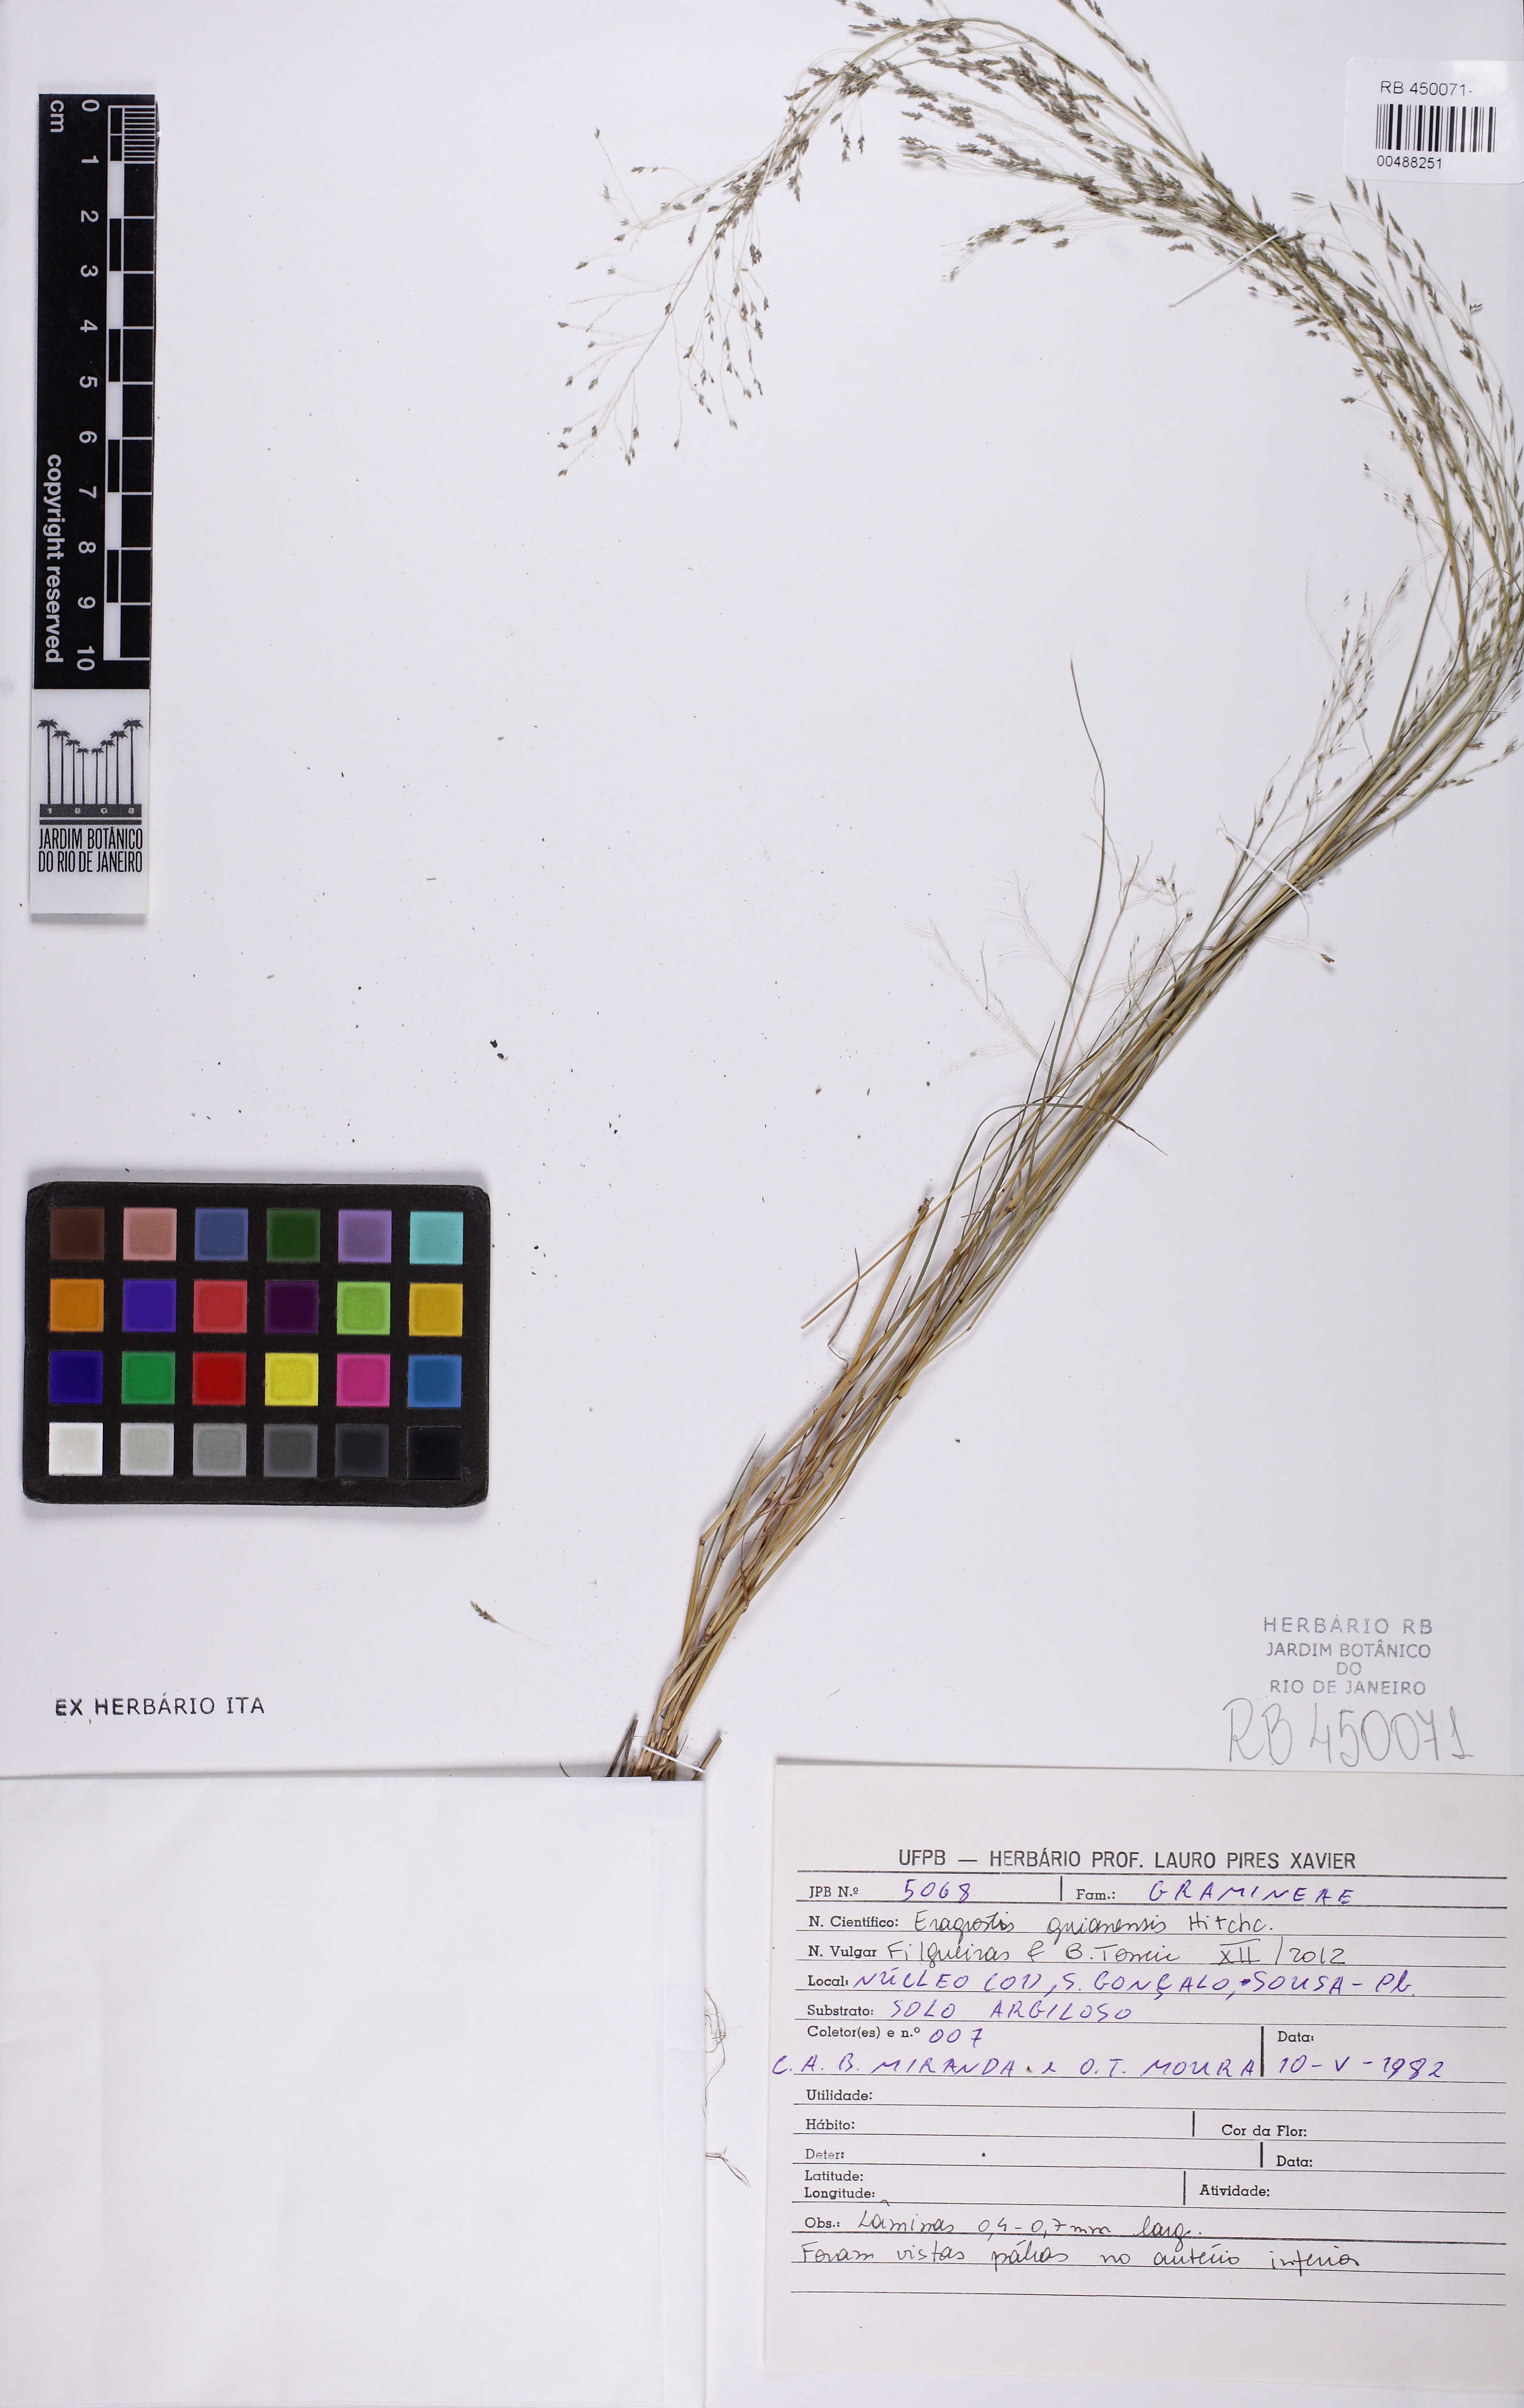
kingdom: Plantae
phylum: Tracheophyta
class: Liliopsida
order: Poales
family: Poaceae
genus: Eragrostis
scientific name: Eragrostis guianensis
